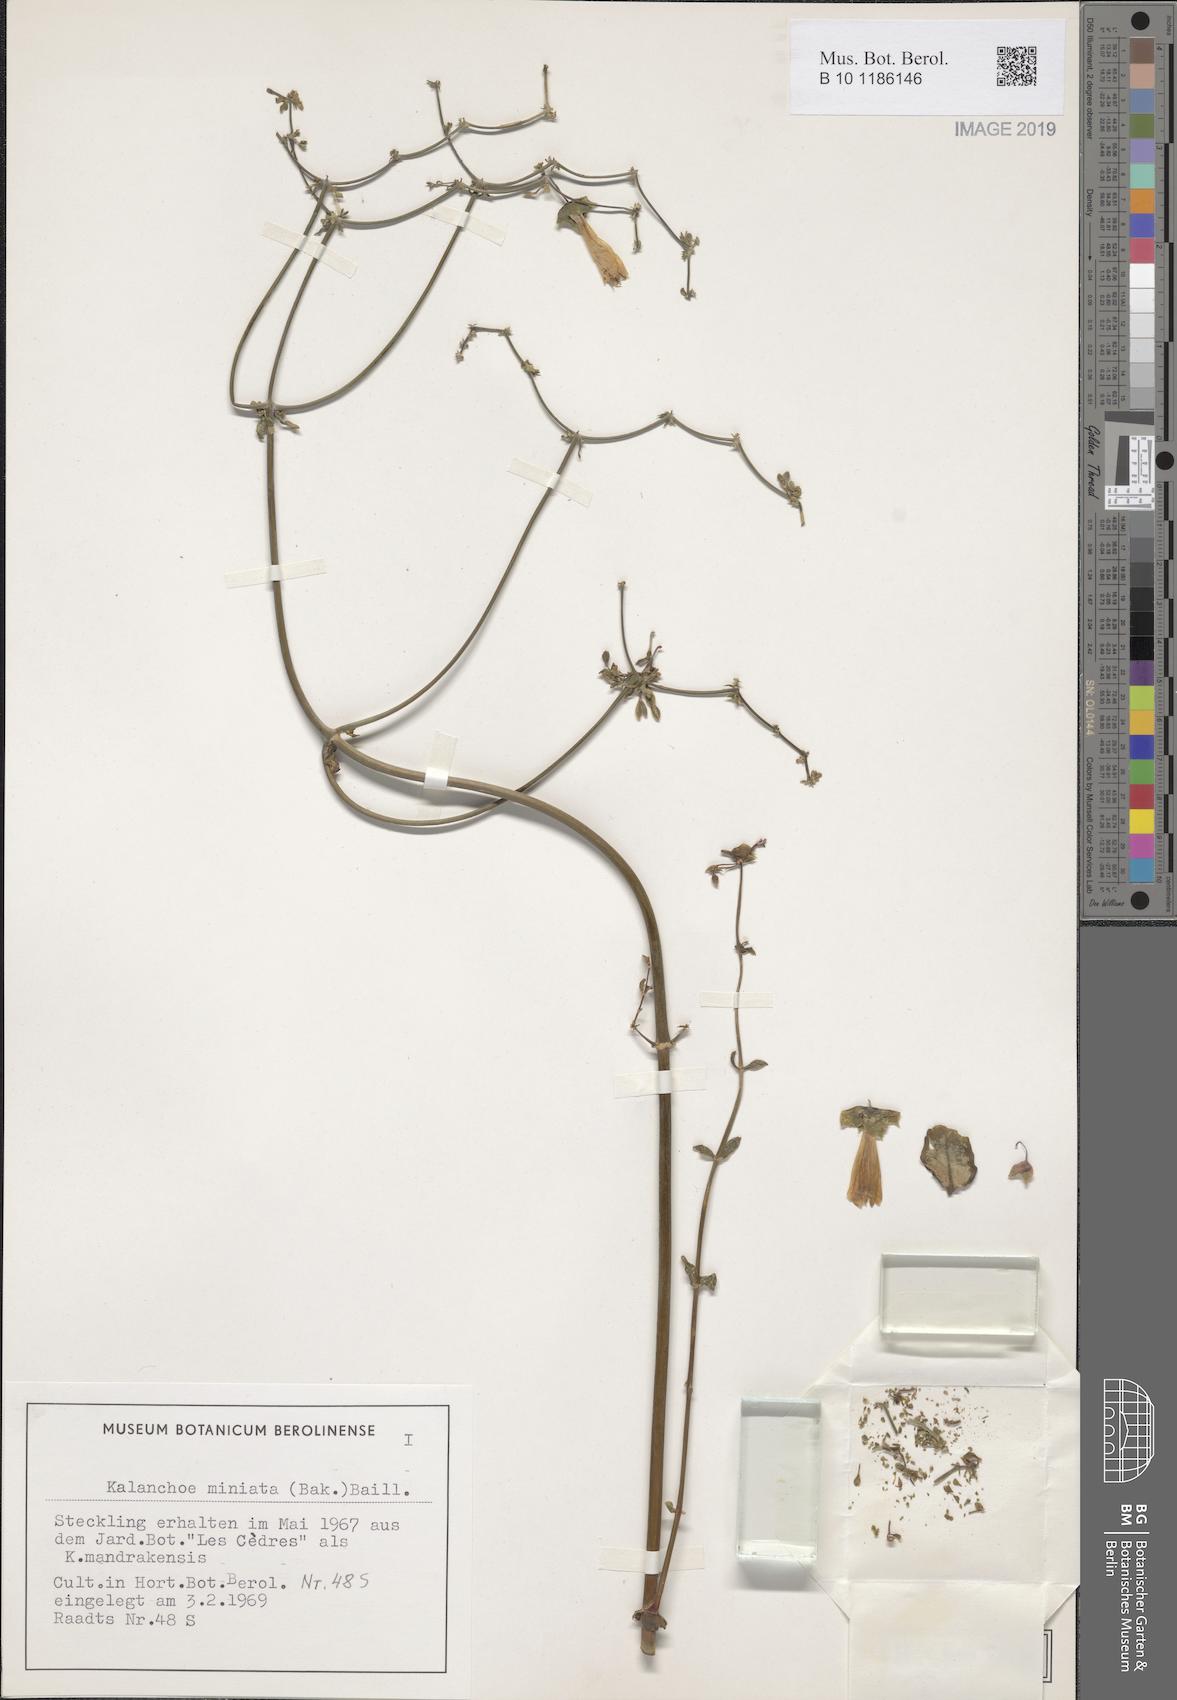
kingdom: Plantae
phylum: Tracheophyta
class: Magnoliopsida
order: Saxifragales
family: Crassulaceae
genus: Kalanchoe
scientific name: Kalanchoe miniata
